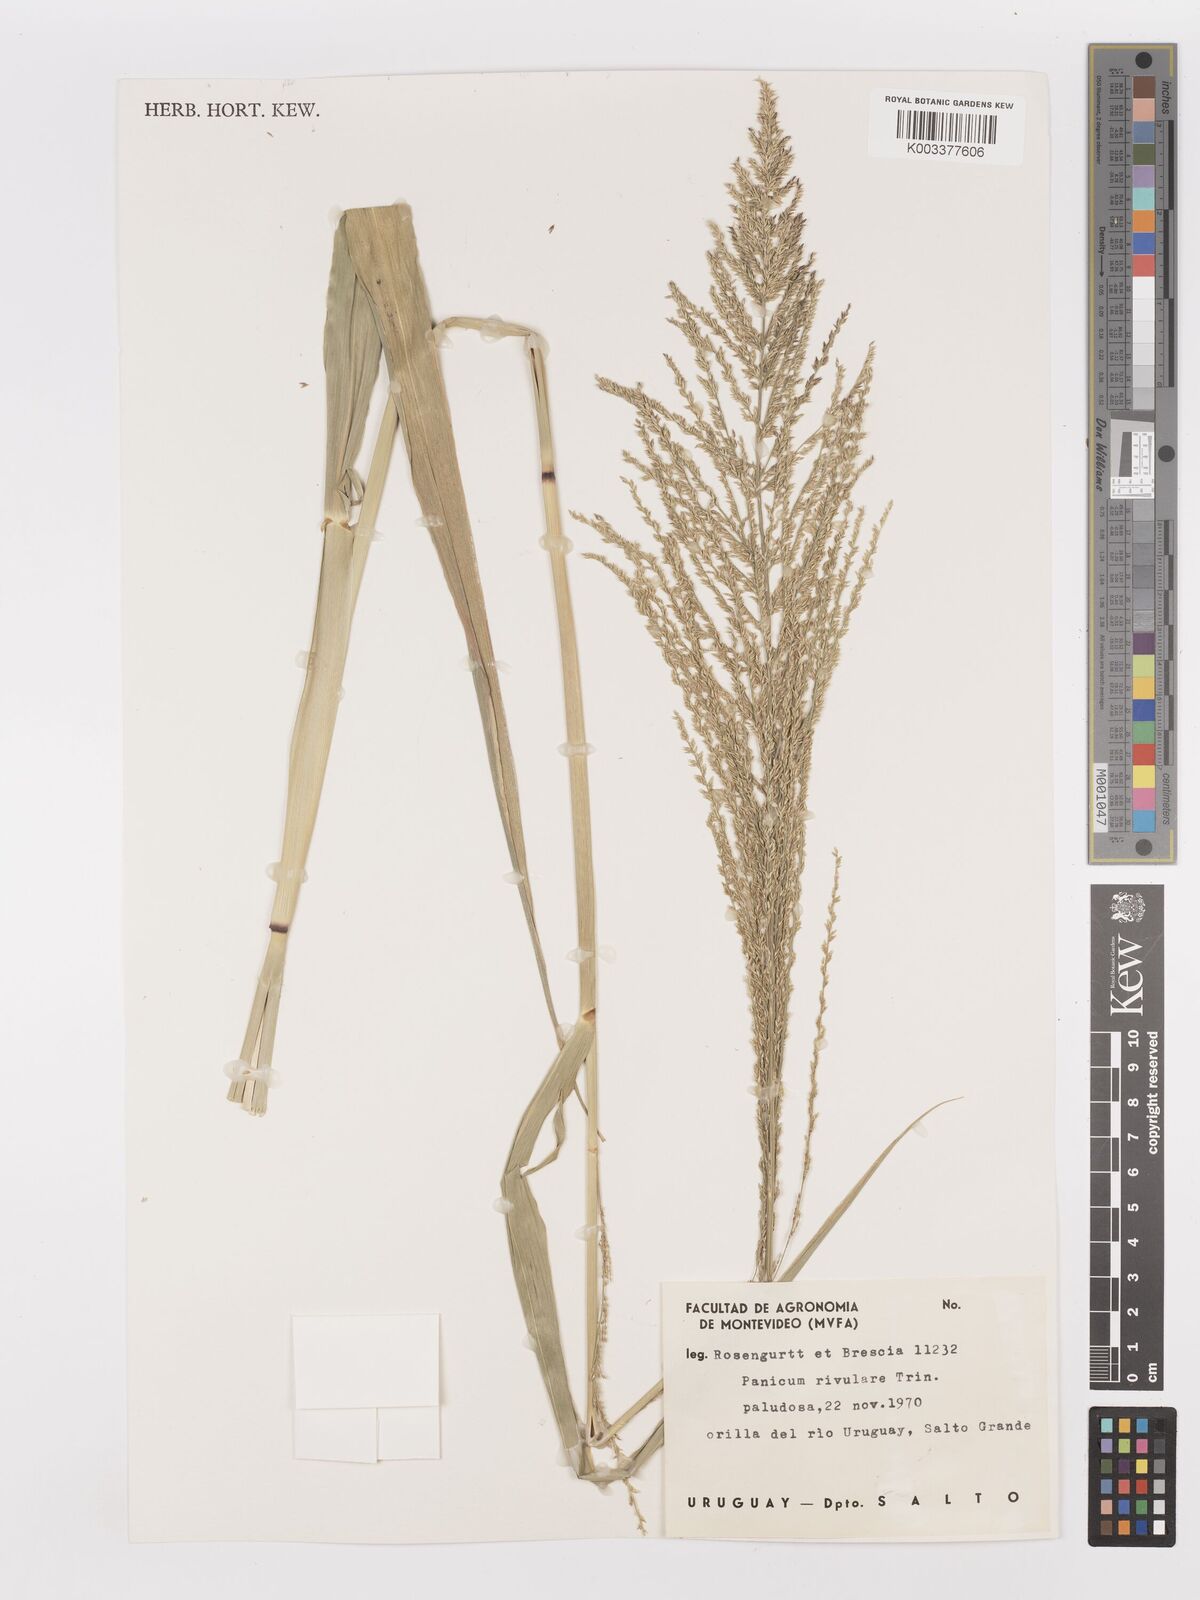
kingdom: Plantae
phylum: Tracheophyta
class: Liliopsida
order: Poales
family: Poaceae
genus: Hymenachne
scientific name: Hymenachne pernambucensis
